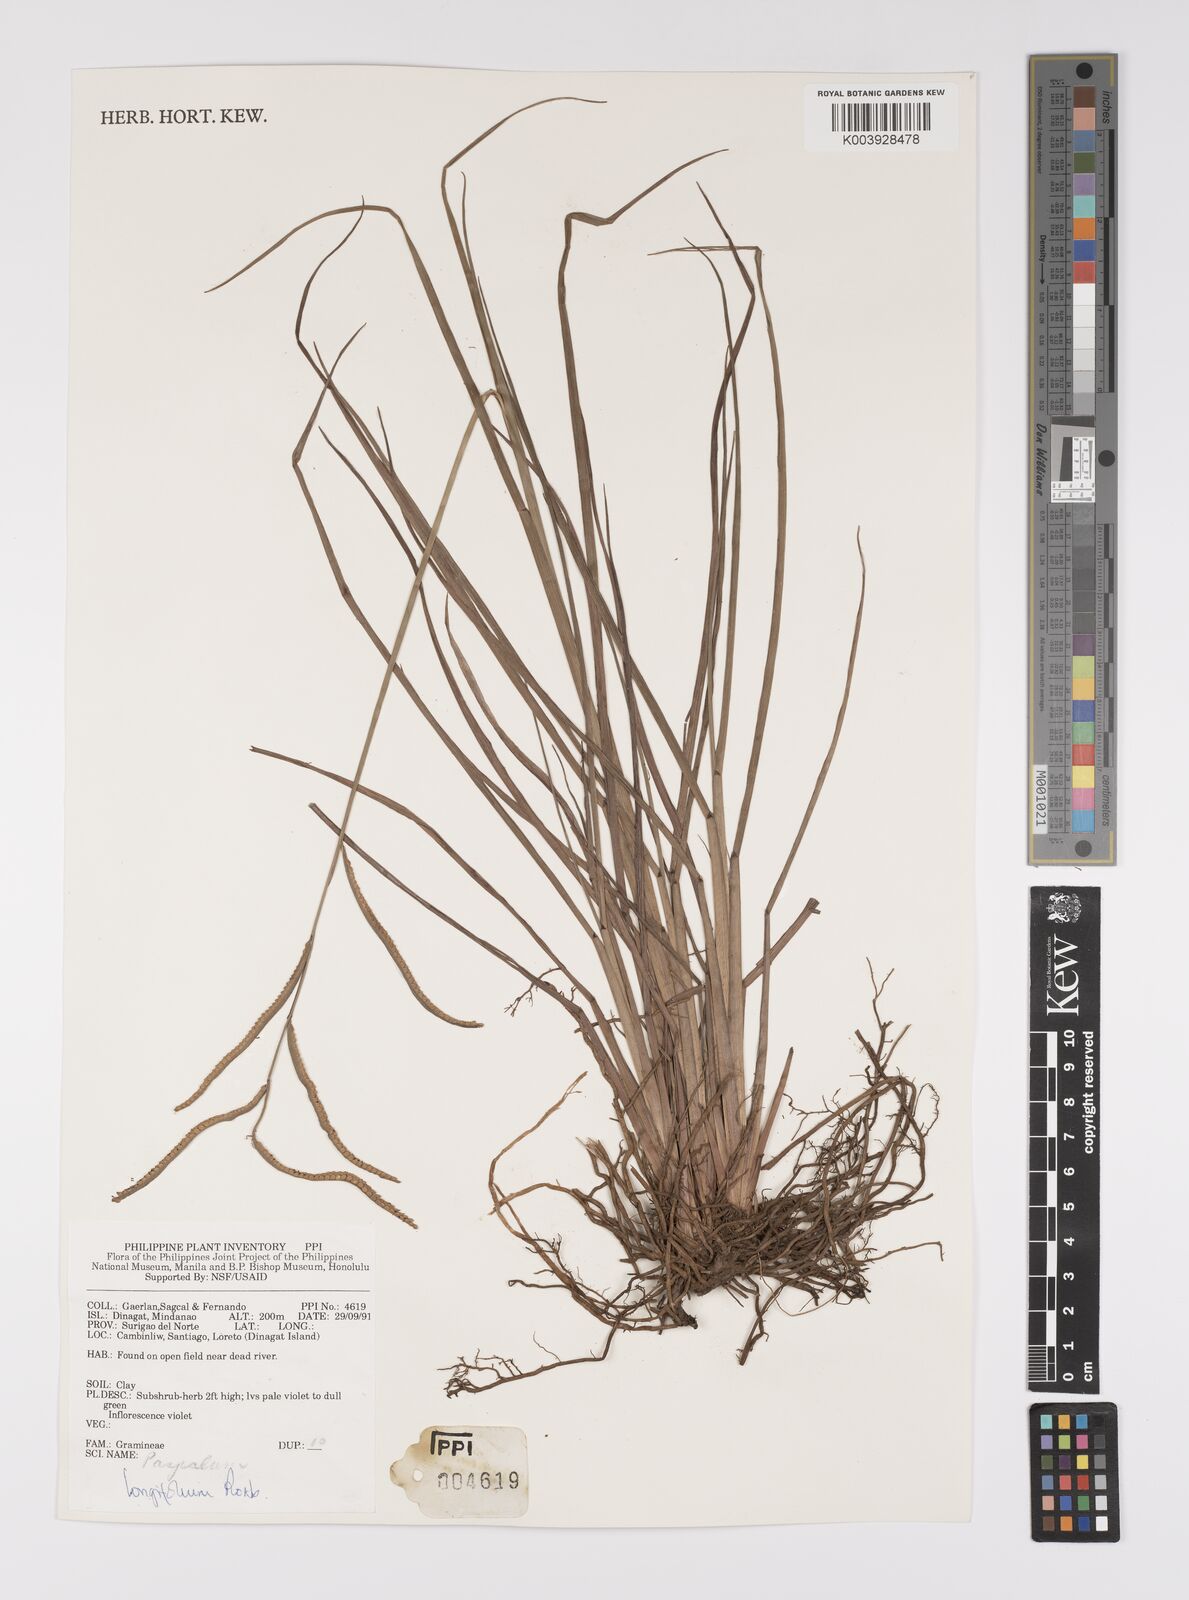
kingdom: Plantae
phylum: Tracheophyta
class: Liliopsida
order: Poales
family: Poaceae
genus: Paspalum
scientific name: Paspalum sumatrense
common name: Long-leaved paspalum
